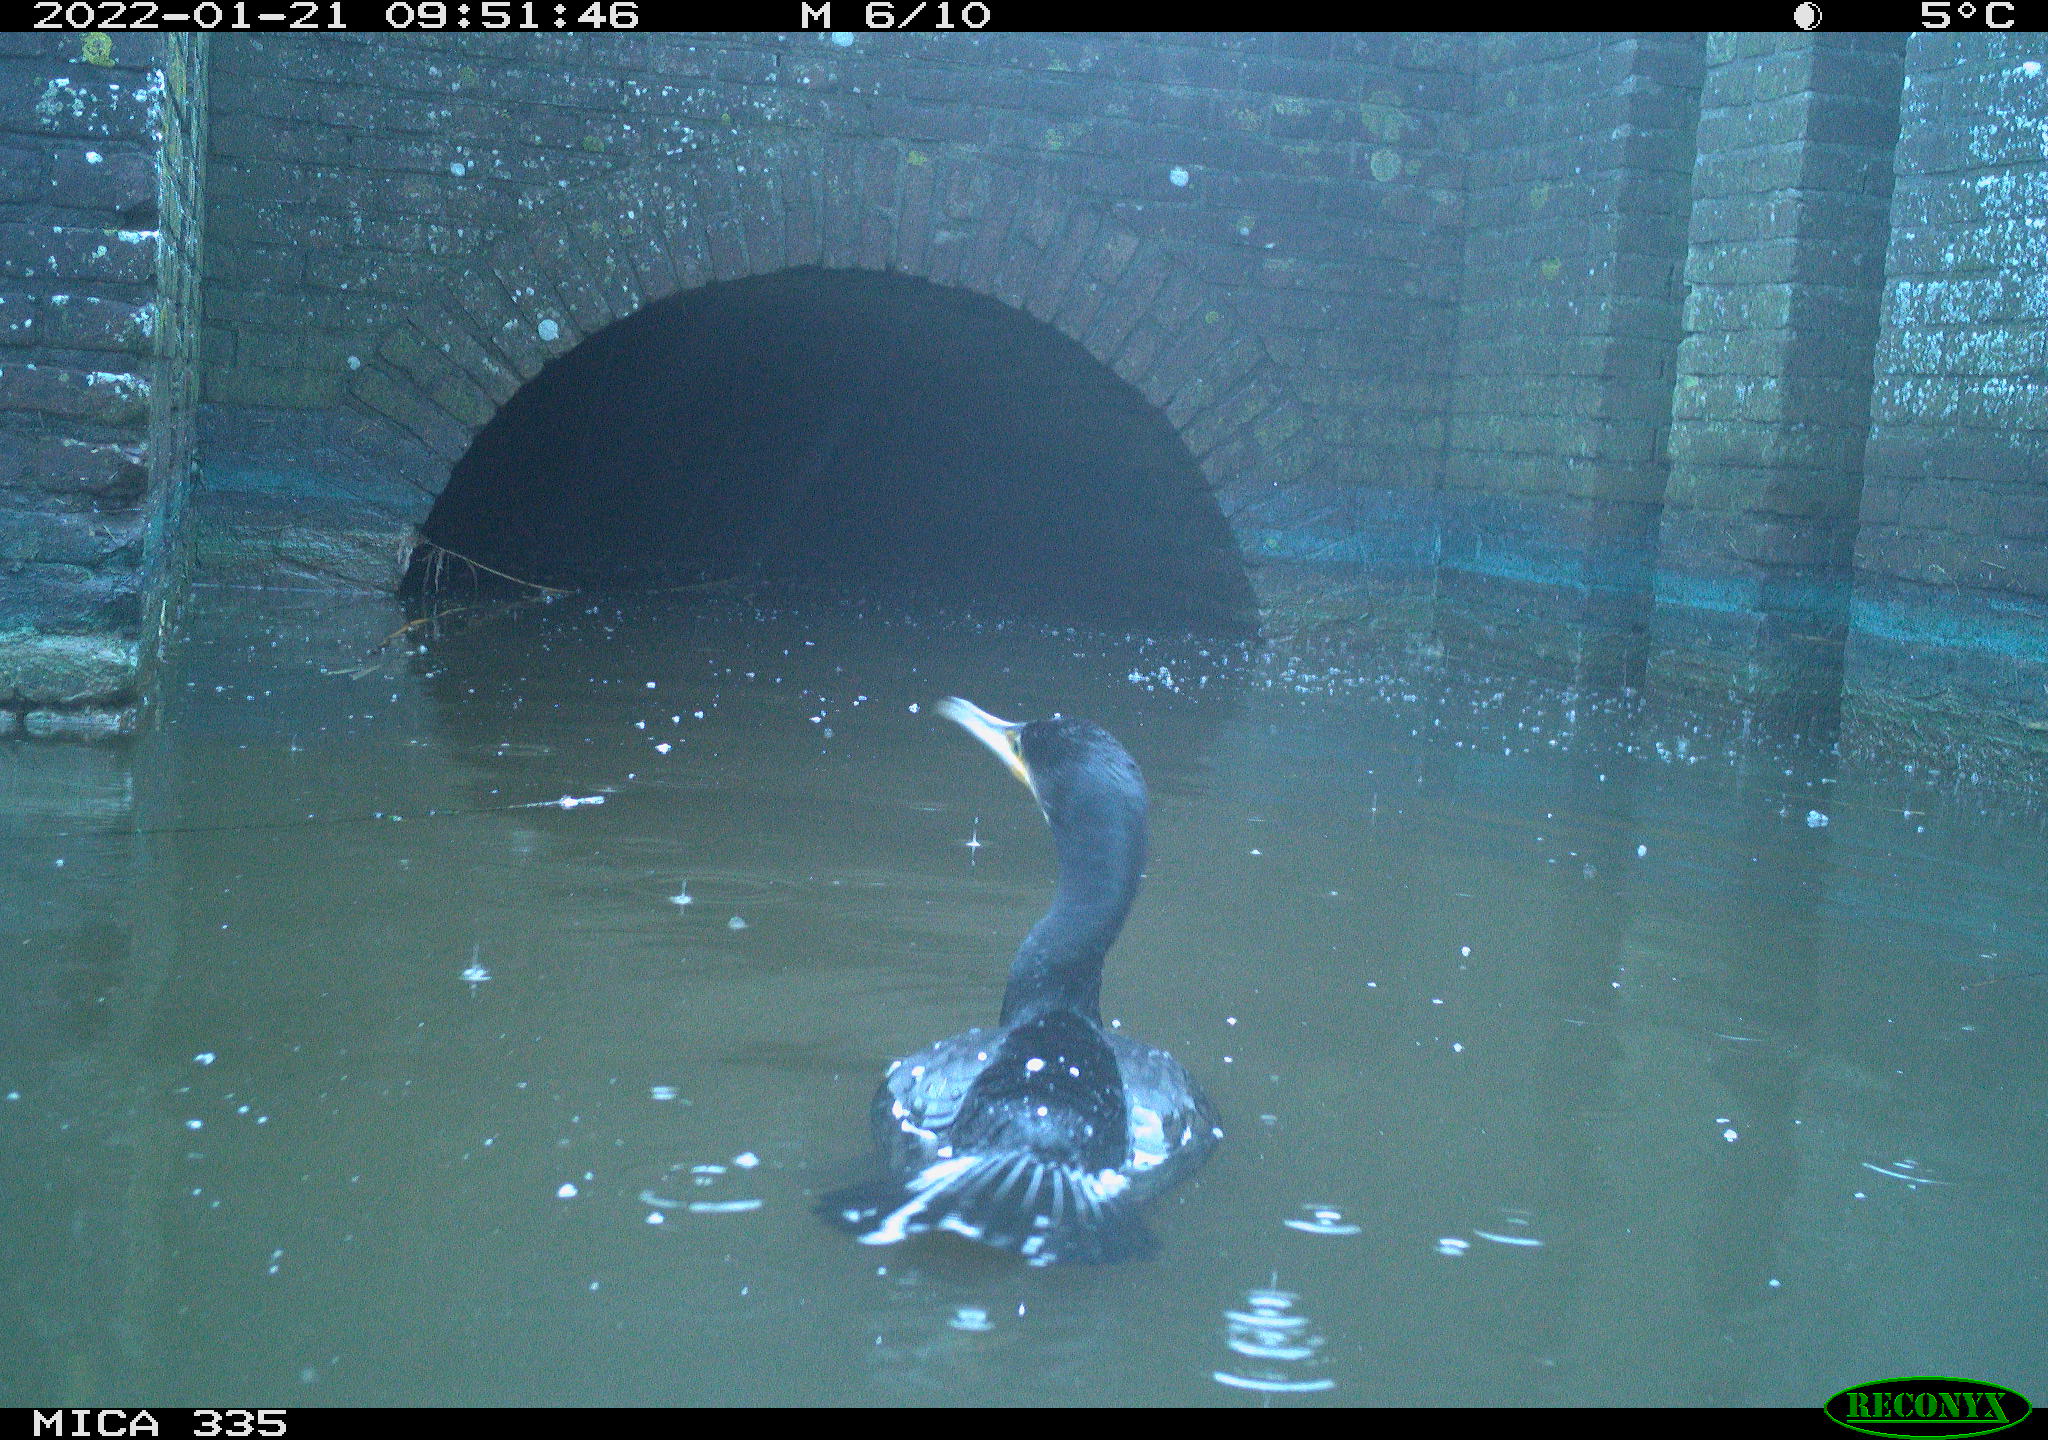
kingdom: Animalia
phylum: Chordata
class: Aves
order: Suliformes
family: Phalacrocoracidae
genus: Phalacrocorax
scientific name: Phalacrocorax carbo
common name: Great cormorant
